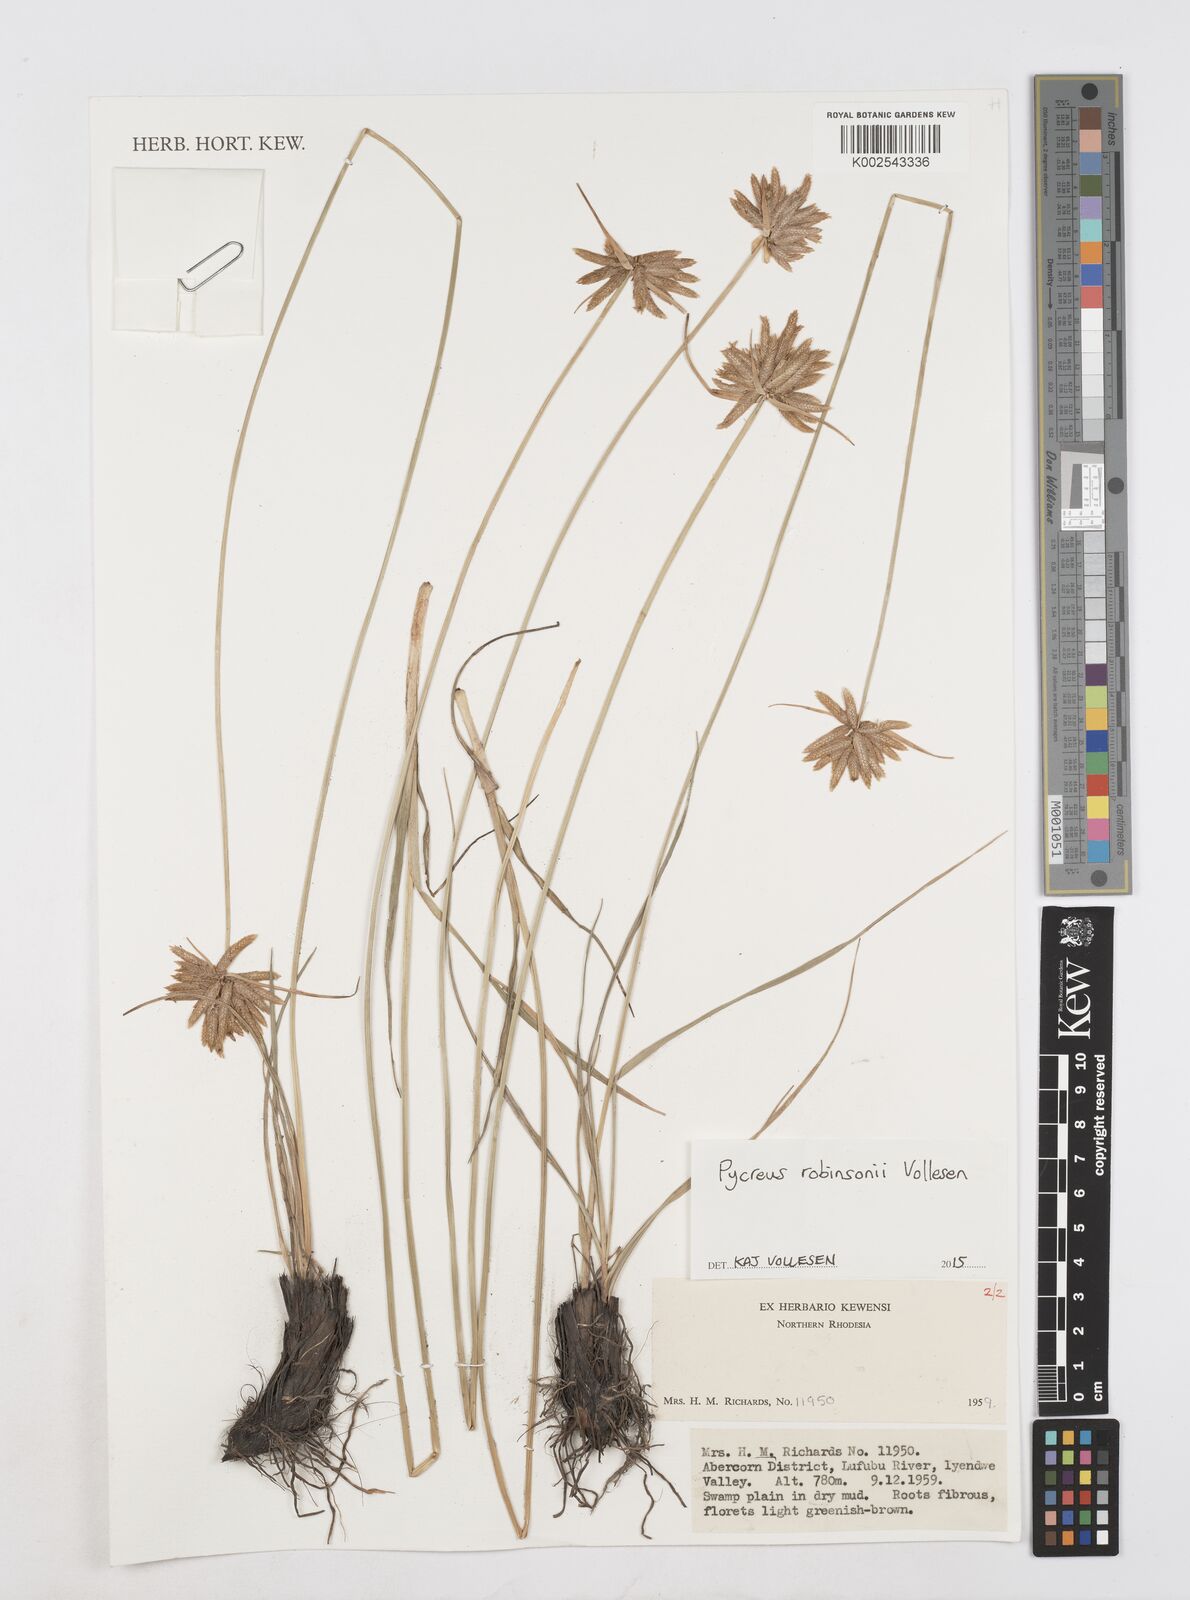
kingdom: Plantae
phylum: Tracheophyta
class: Liliopsida
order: Poales
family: Cyperaceae
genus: Cyperus
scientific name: Cyperus tenuiculmis
